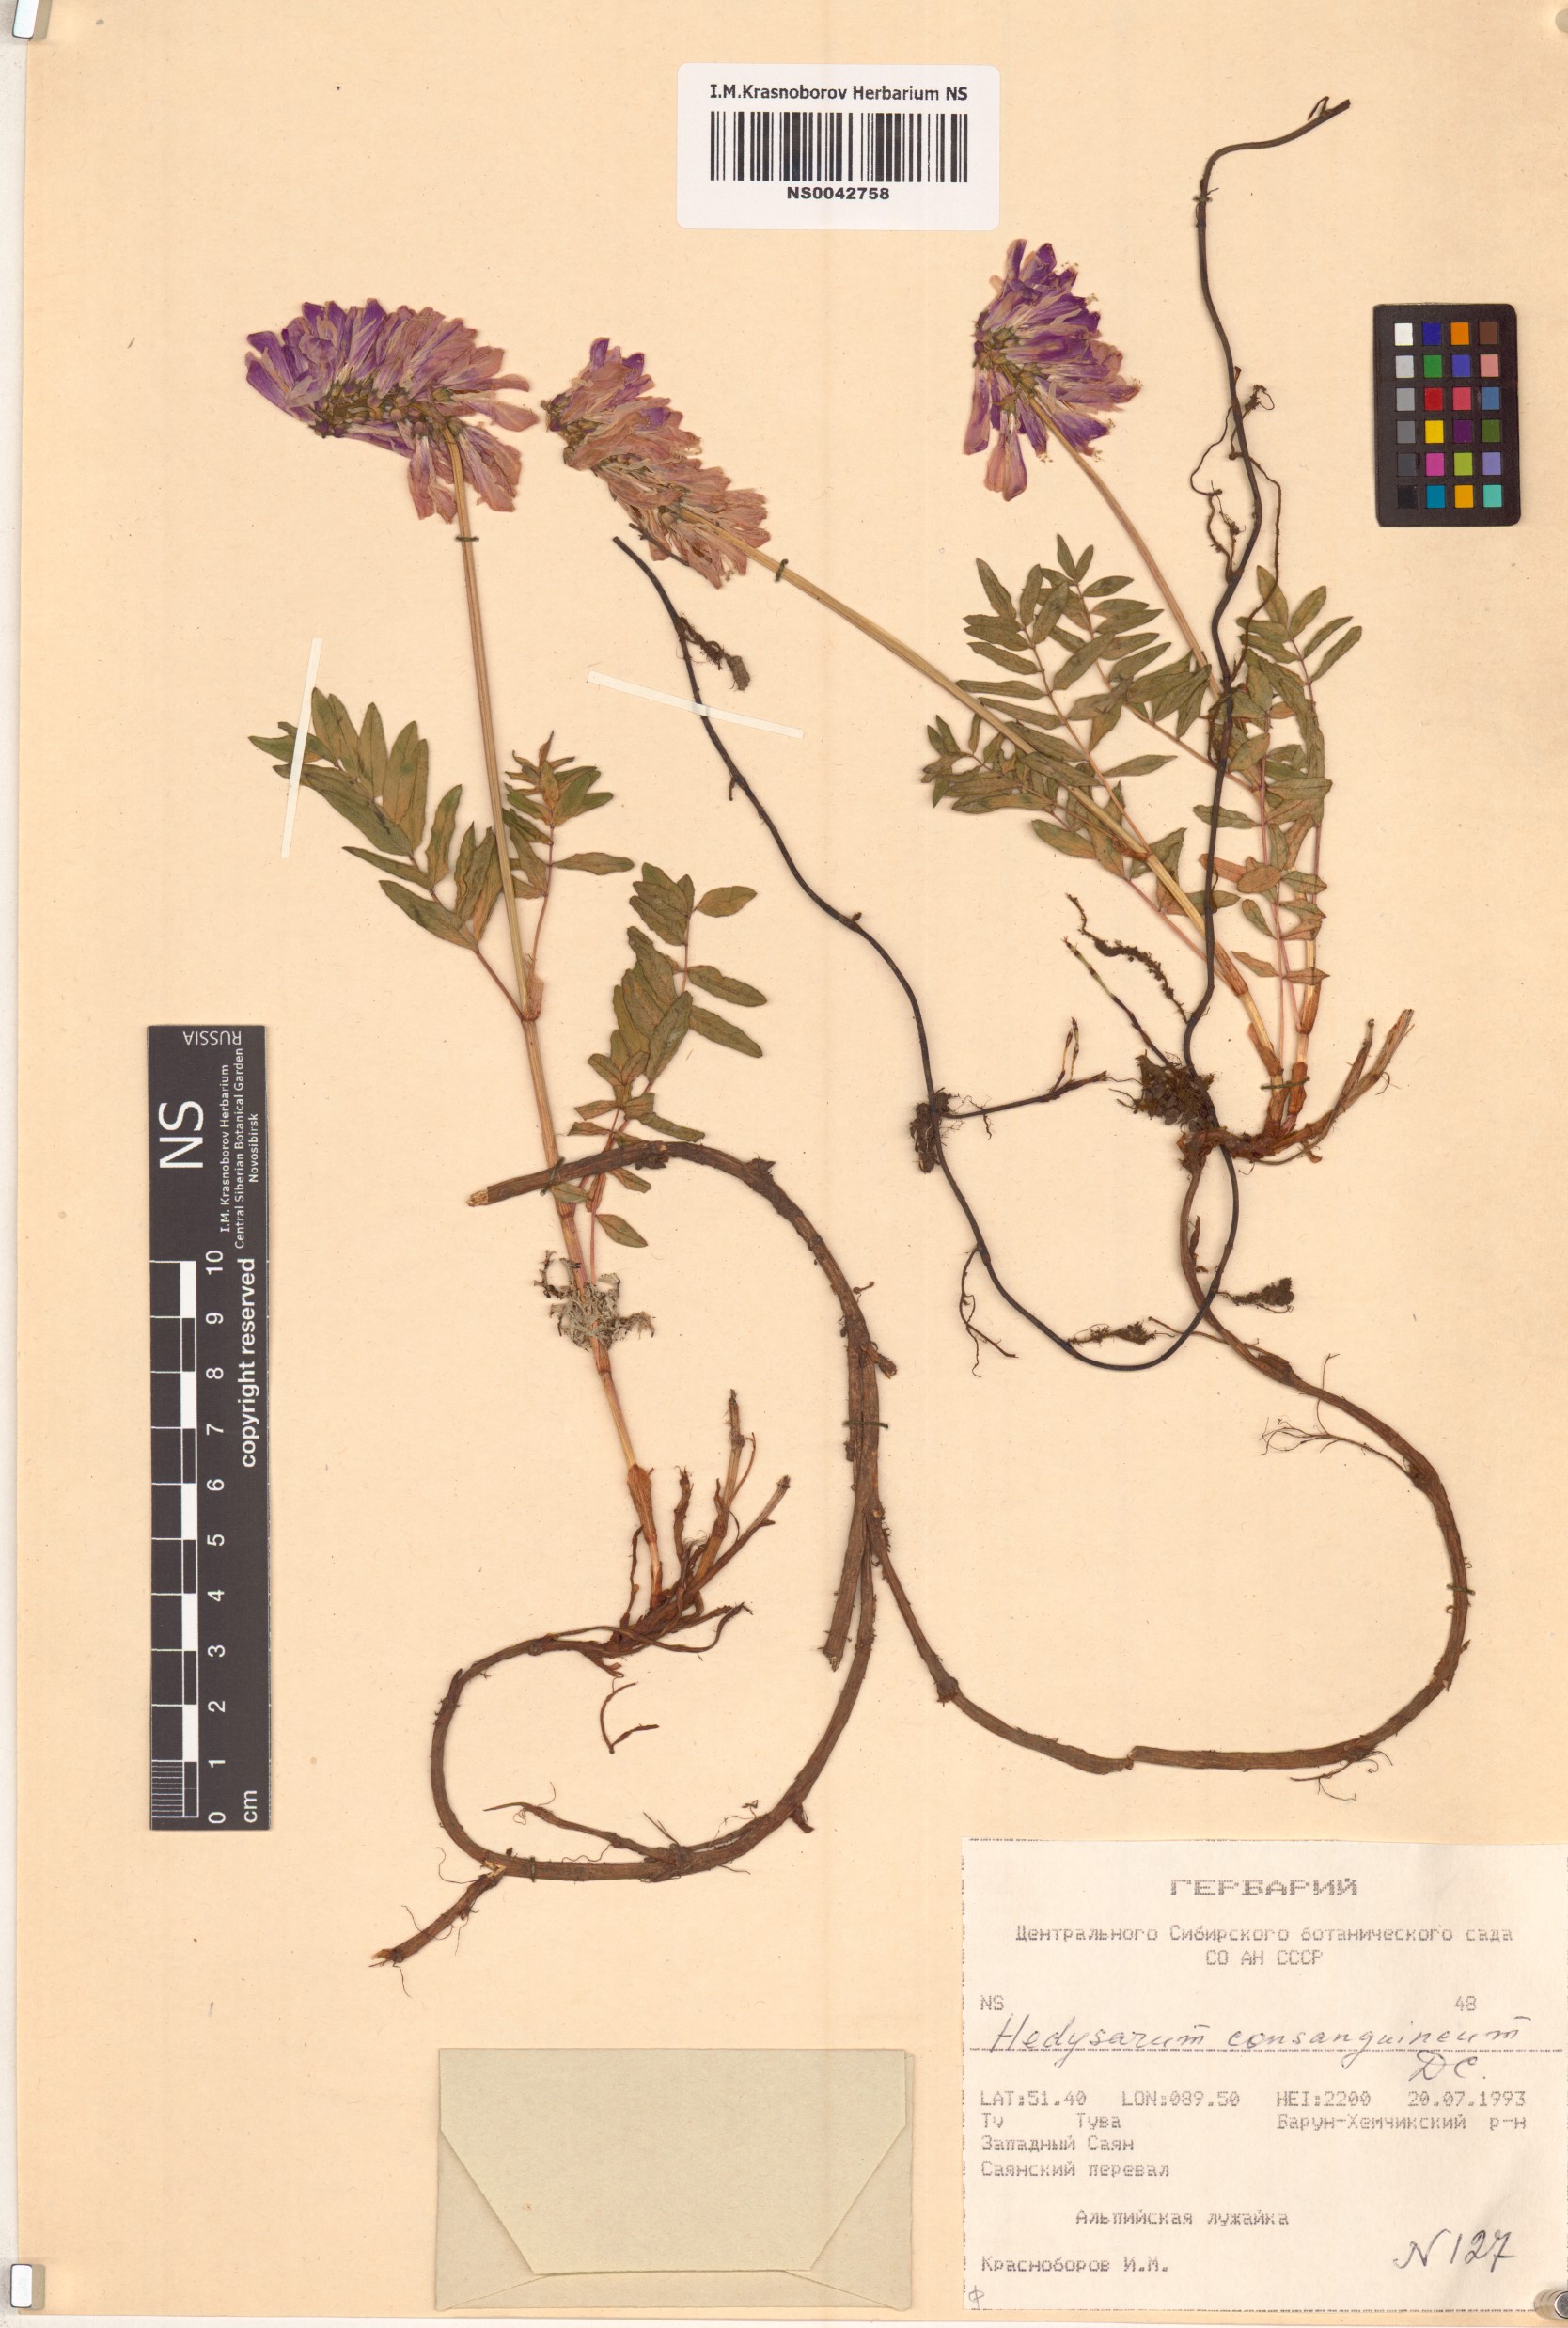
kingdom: Plantae
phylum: Tracheophyta
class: Magnoliopsida
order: Fabales
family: Fabaceae
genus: Hedysarum
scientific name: Hedysarum consanguineum
